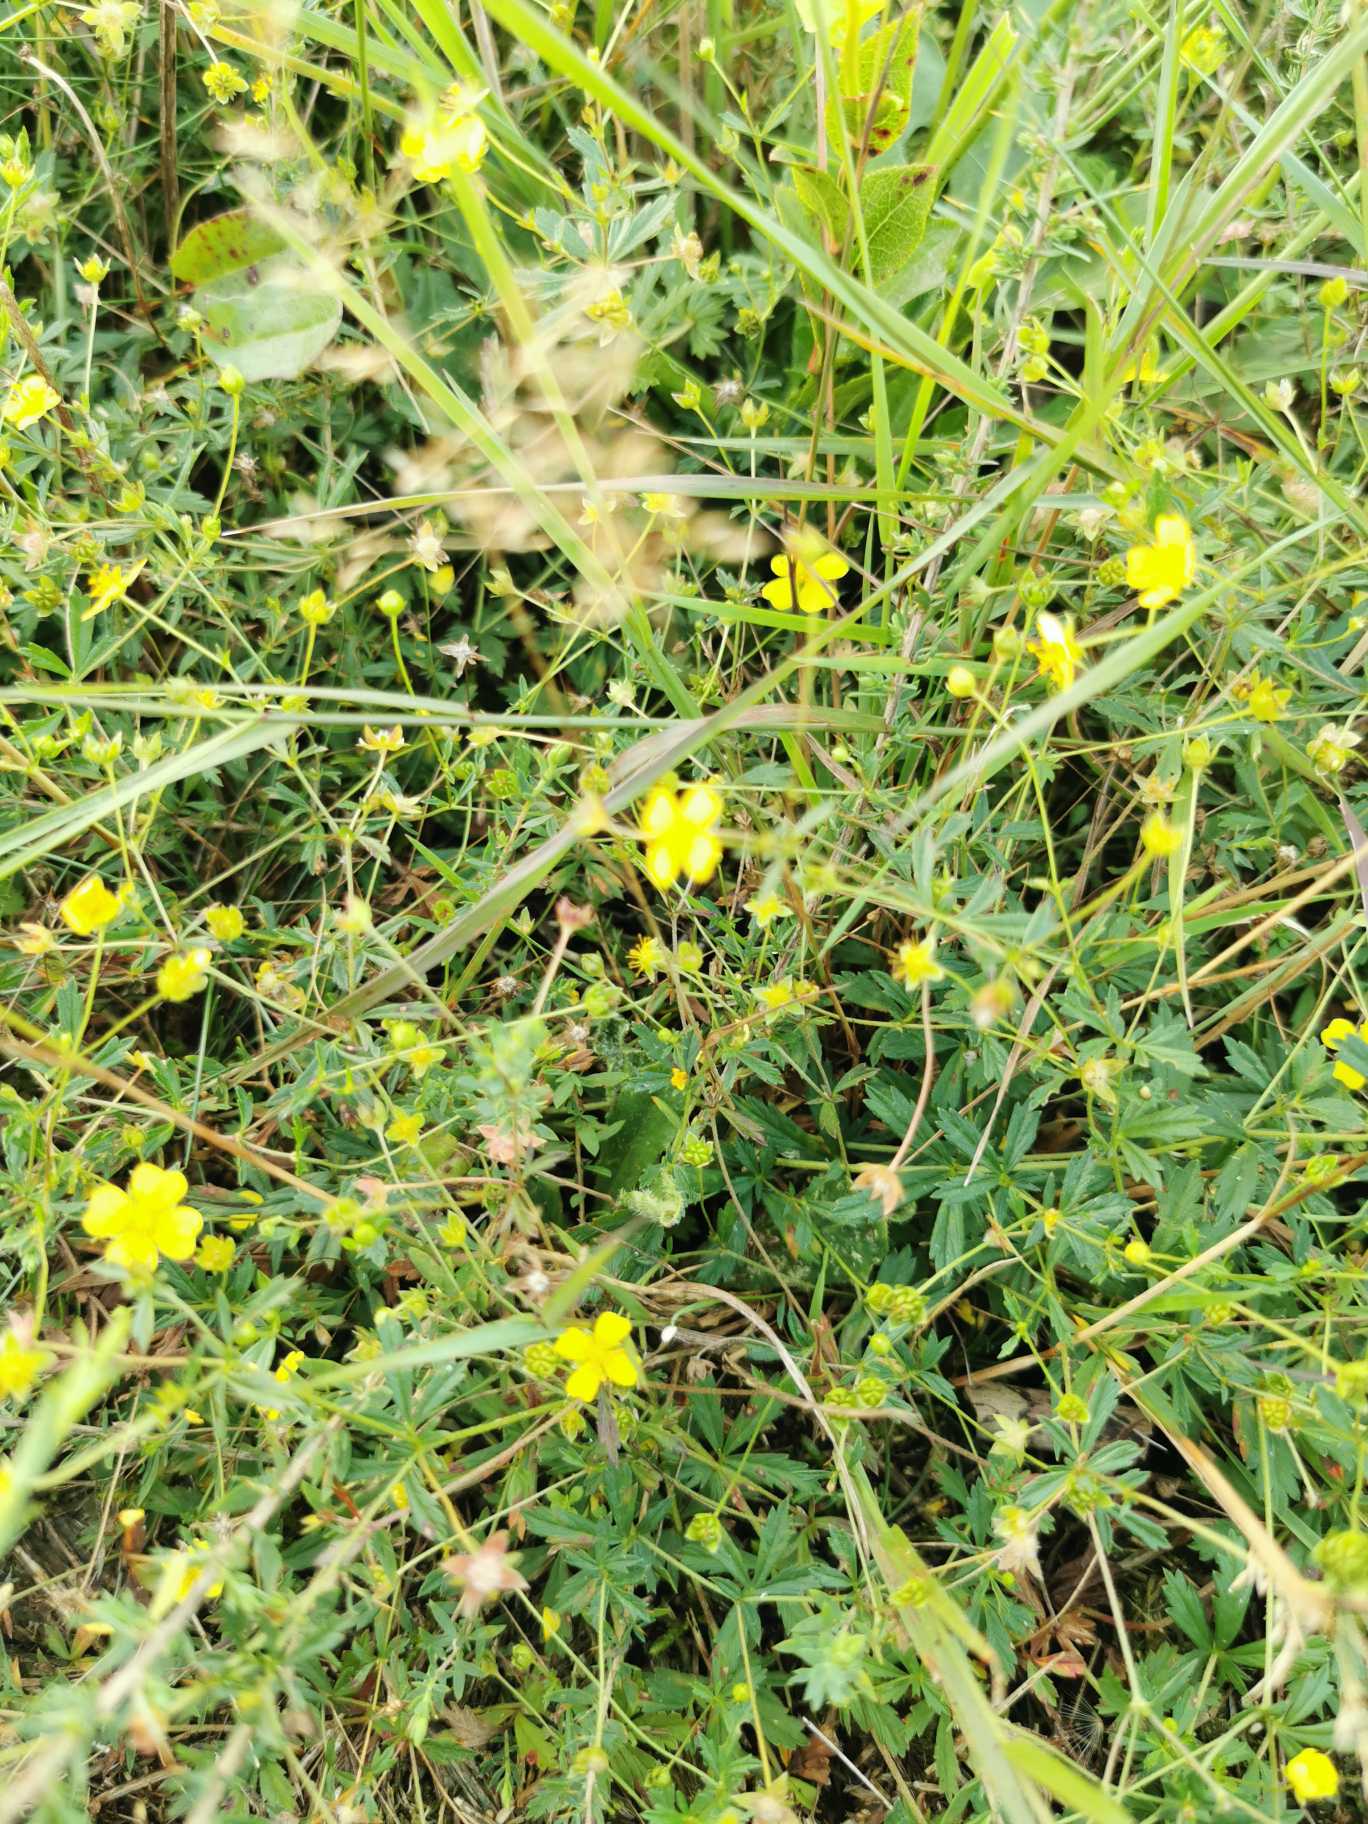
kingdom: Plantae
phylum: Tracheophyta
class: Magnoliopsida
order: Rosales
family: Rosaceae
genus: Potentilla
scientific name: Potentilla erecta
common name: Tormentil
